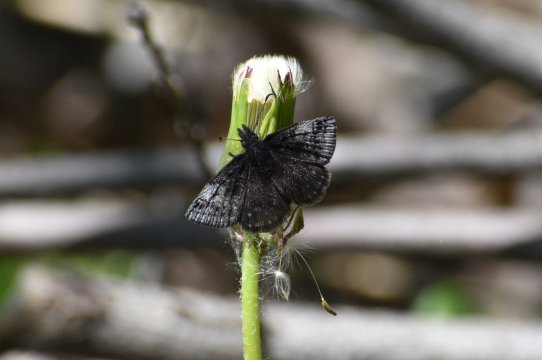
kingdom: Animalia
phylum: Arthropoda
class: Insecta
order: Lepidoptera
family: Hesperiidae
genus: Erynnis
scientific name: Erynnis icelus
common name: Dreamy Duskywing
